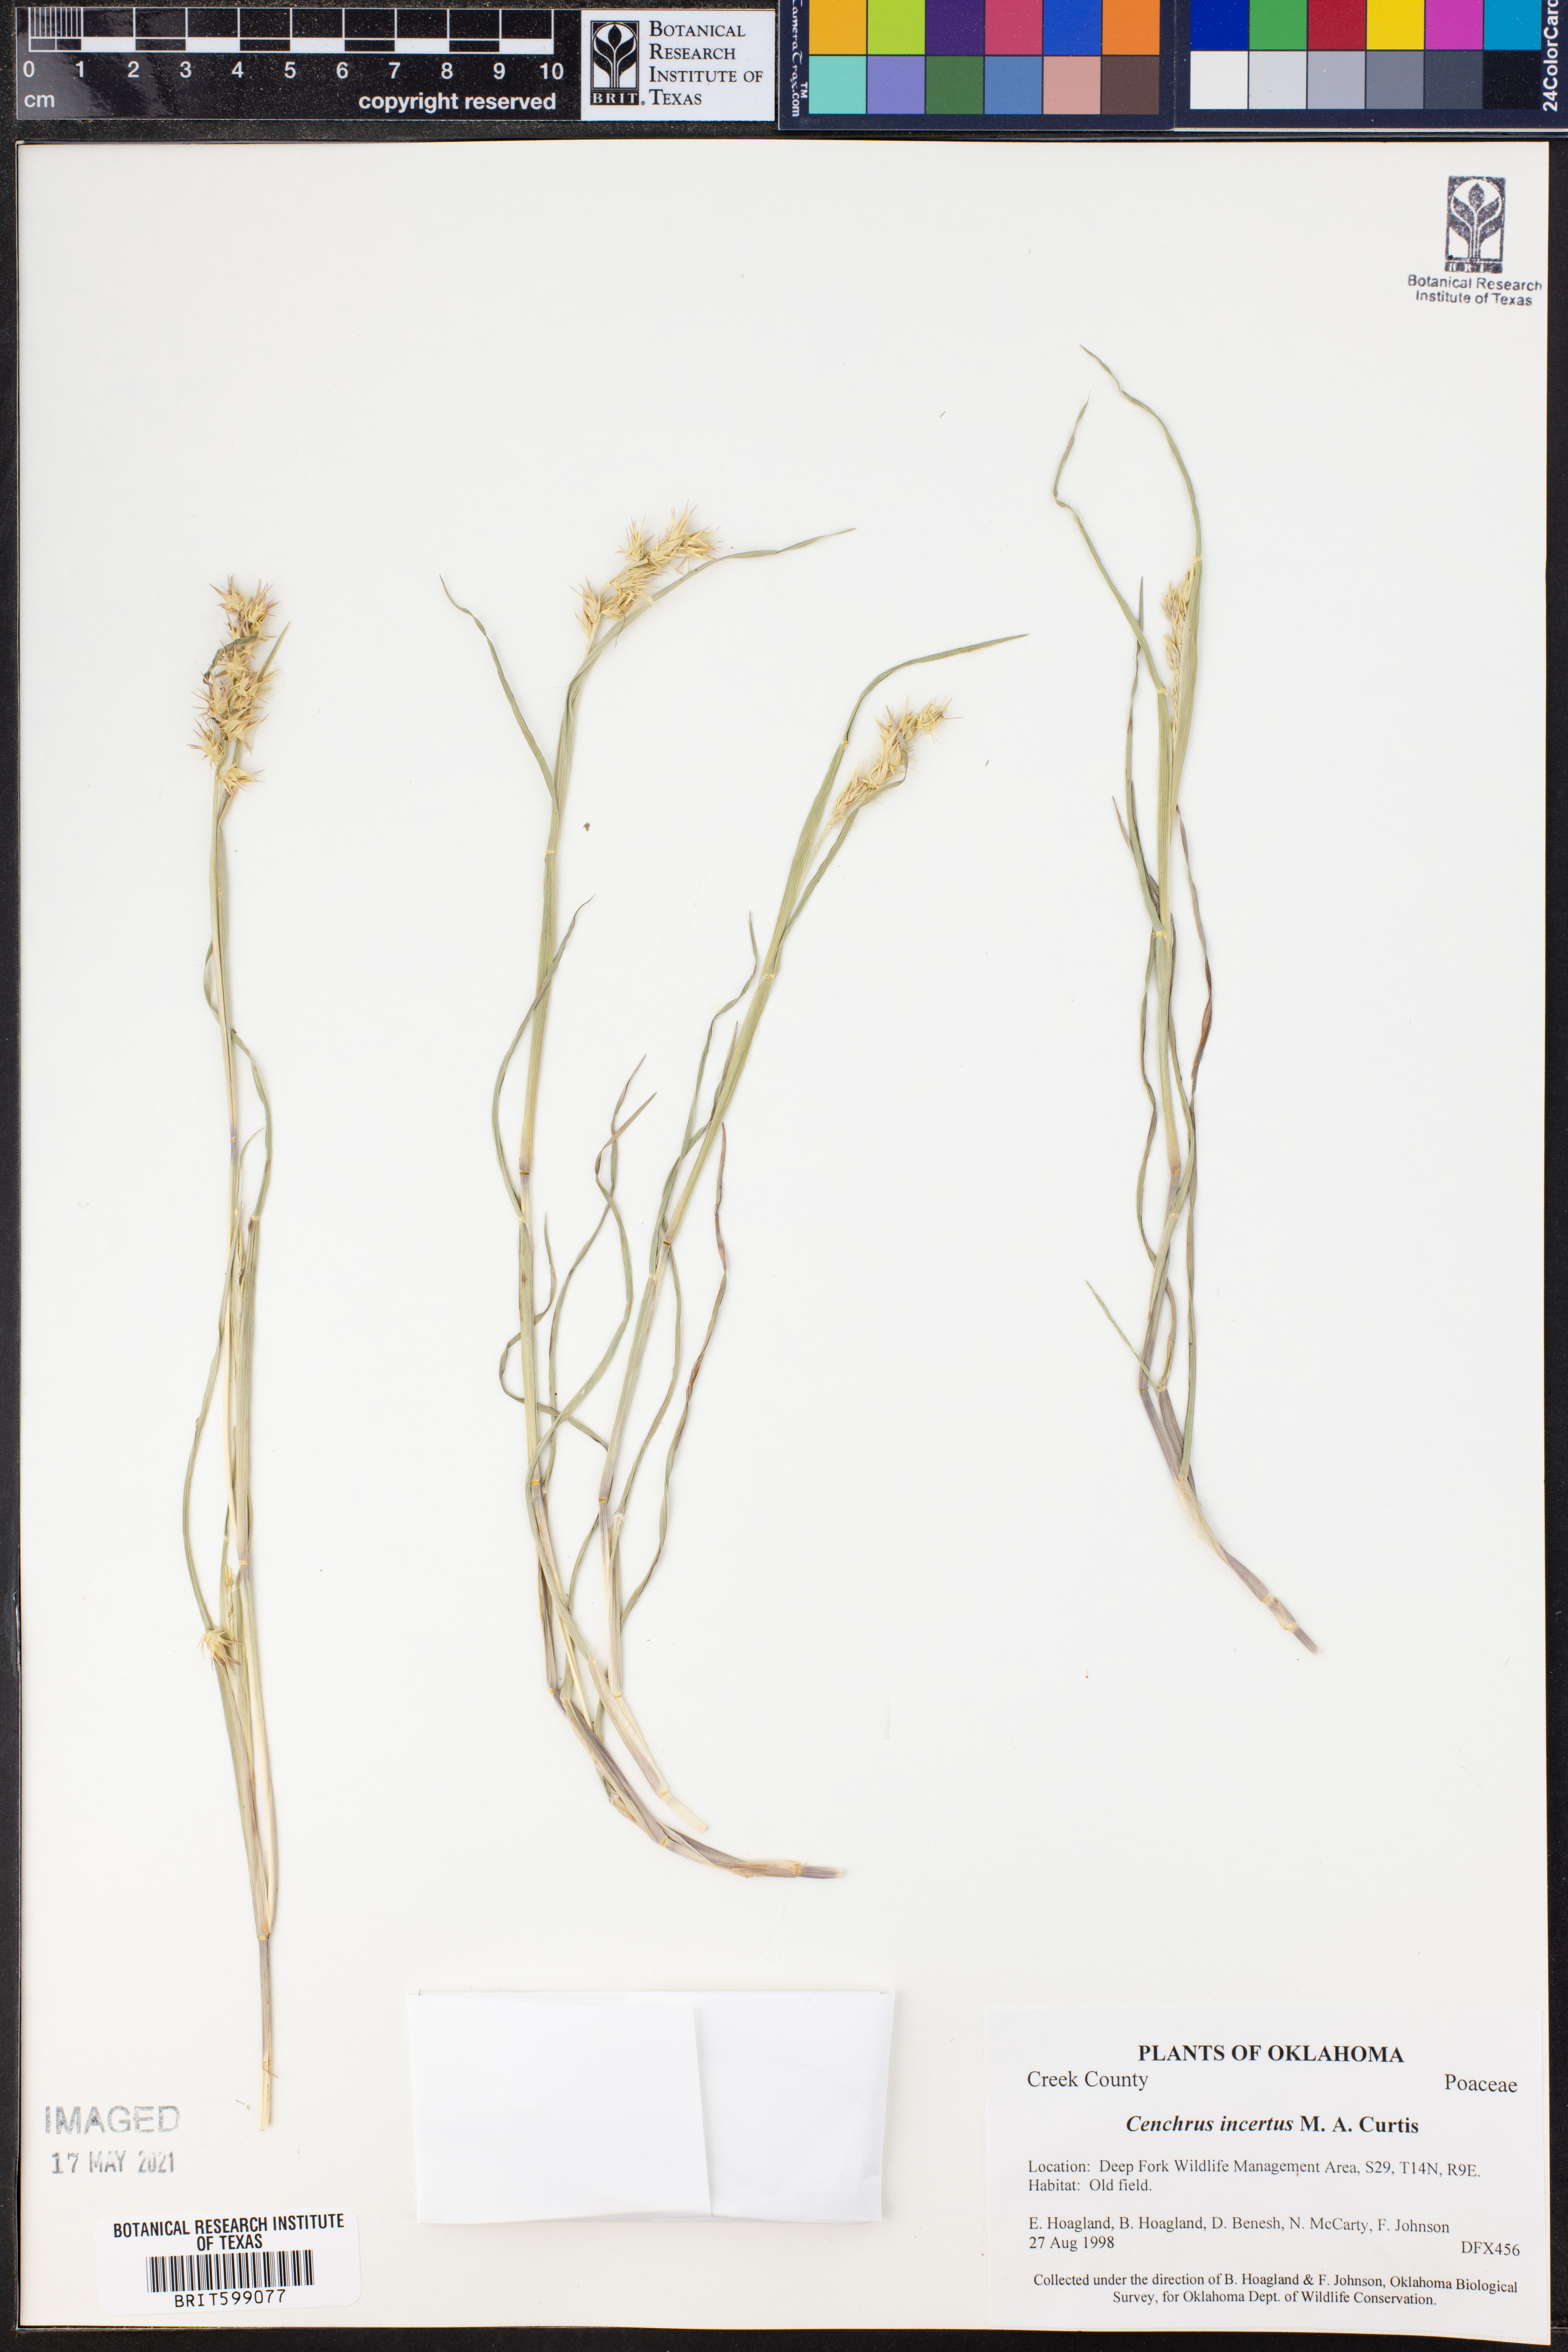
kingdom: Plantae
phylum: Tracheophyta
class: Liliopsida
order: Poales
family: Poaceae
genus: Cenchrus
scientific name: Cenchrus spinifex
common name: Coast sandbur
